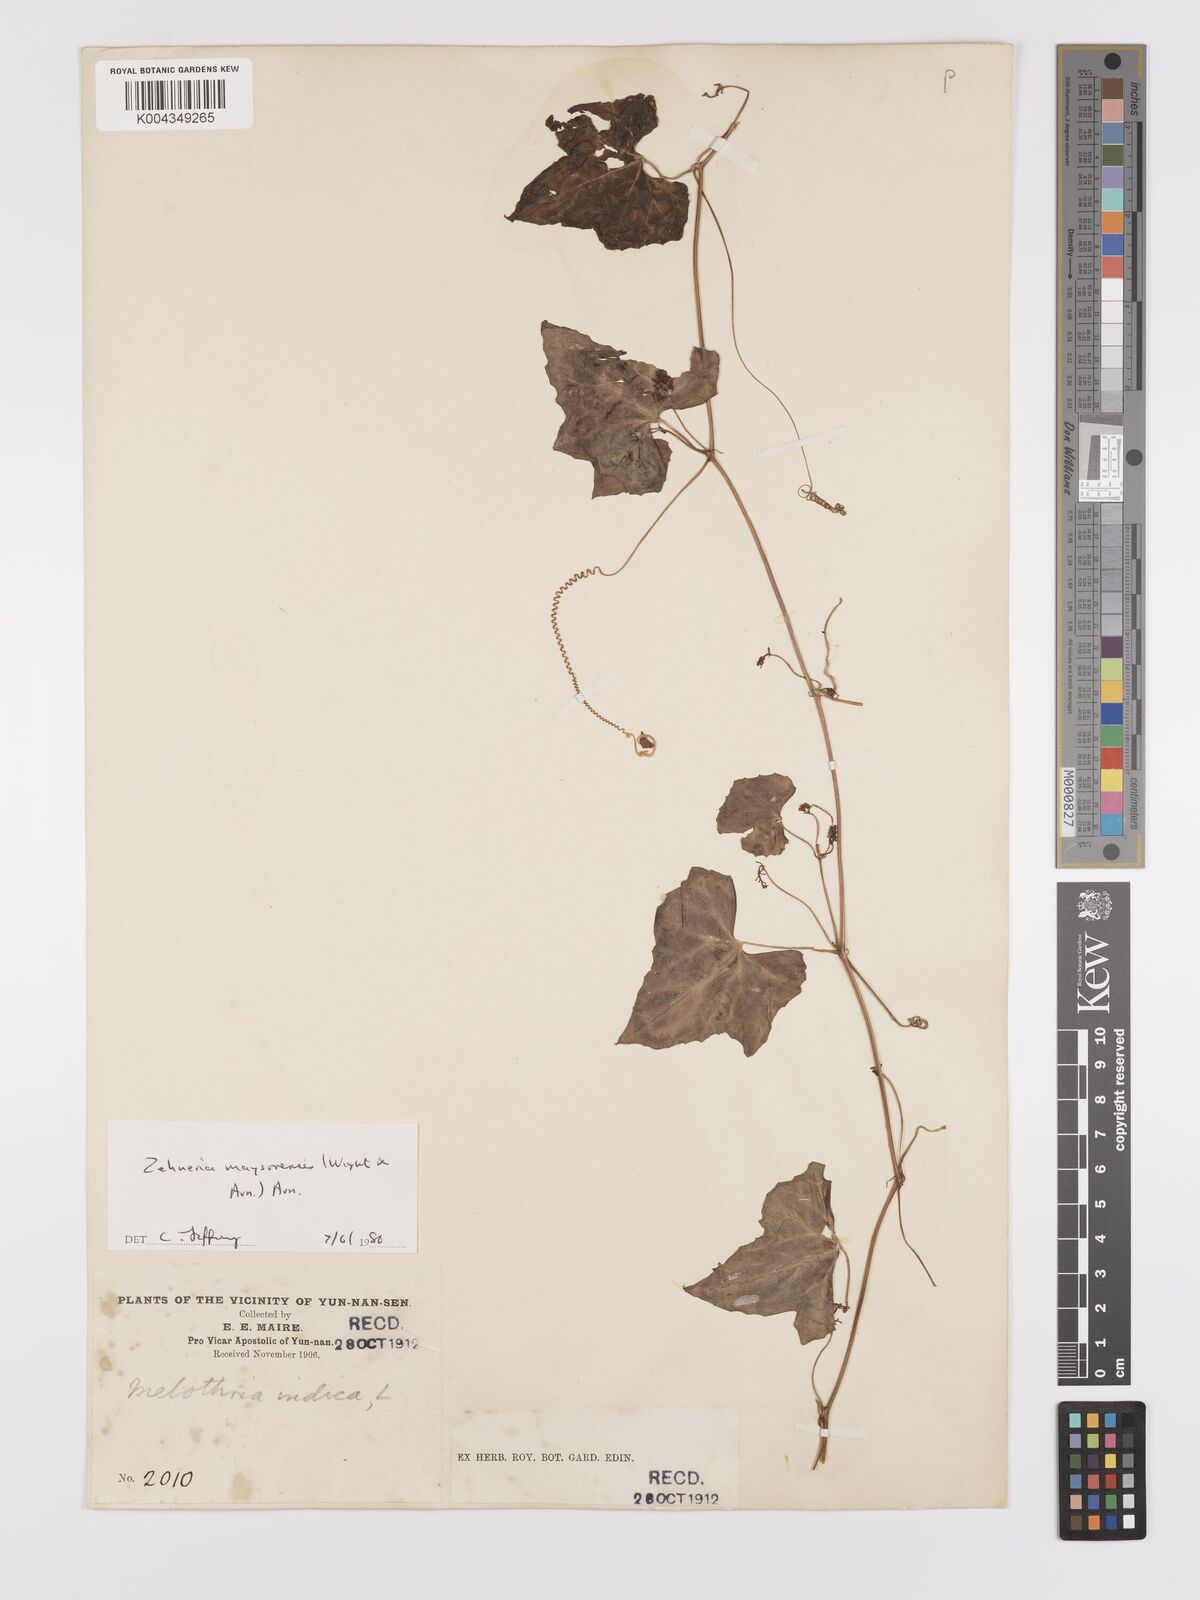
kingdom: Plantae
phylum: Tracheophyta
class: Magnoliopsida
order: Cucurbitales
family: Cucurbitaceae
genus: Zehneria
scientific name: Zehneria maysorensis
